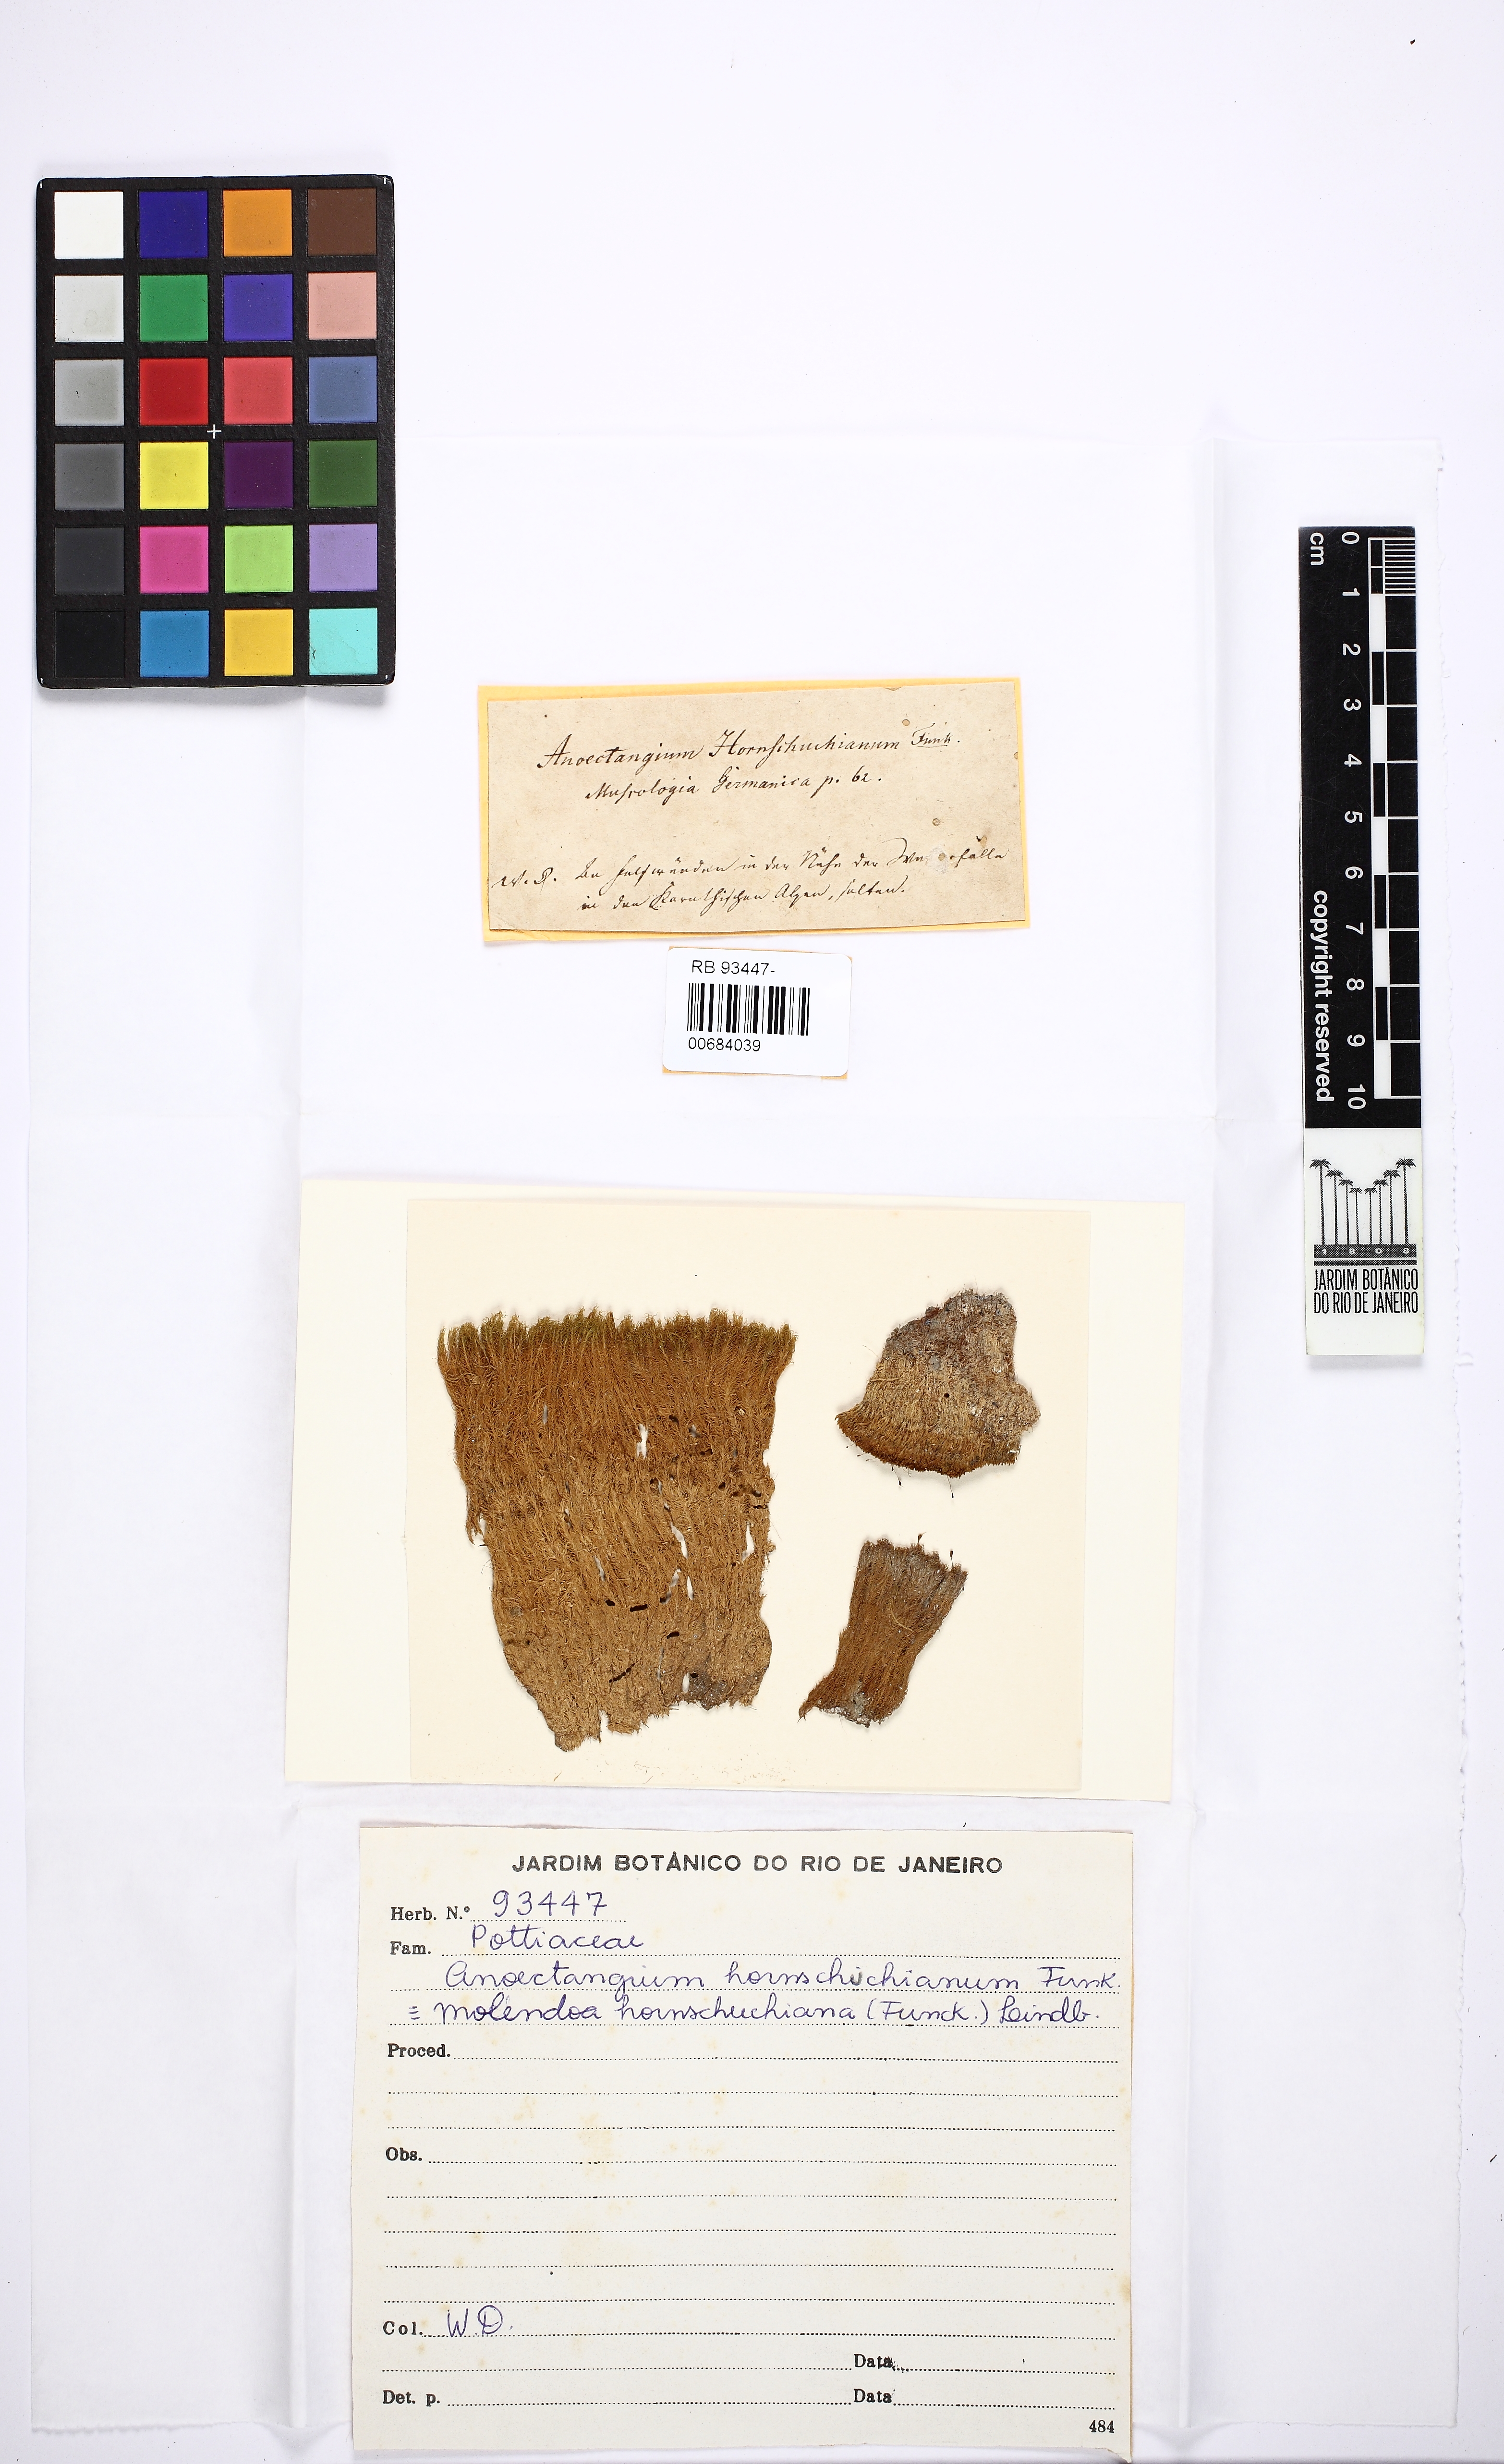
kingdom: Plantae
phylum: Bryophyta
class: Bryopsida
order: Pottiales
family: Pottiaceae
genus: Molendoa
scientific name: Molendoa hornschuchiana
